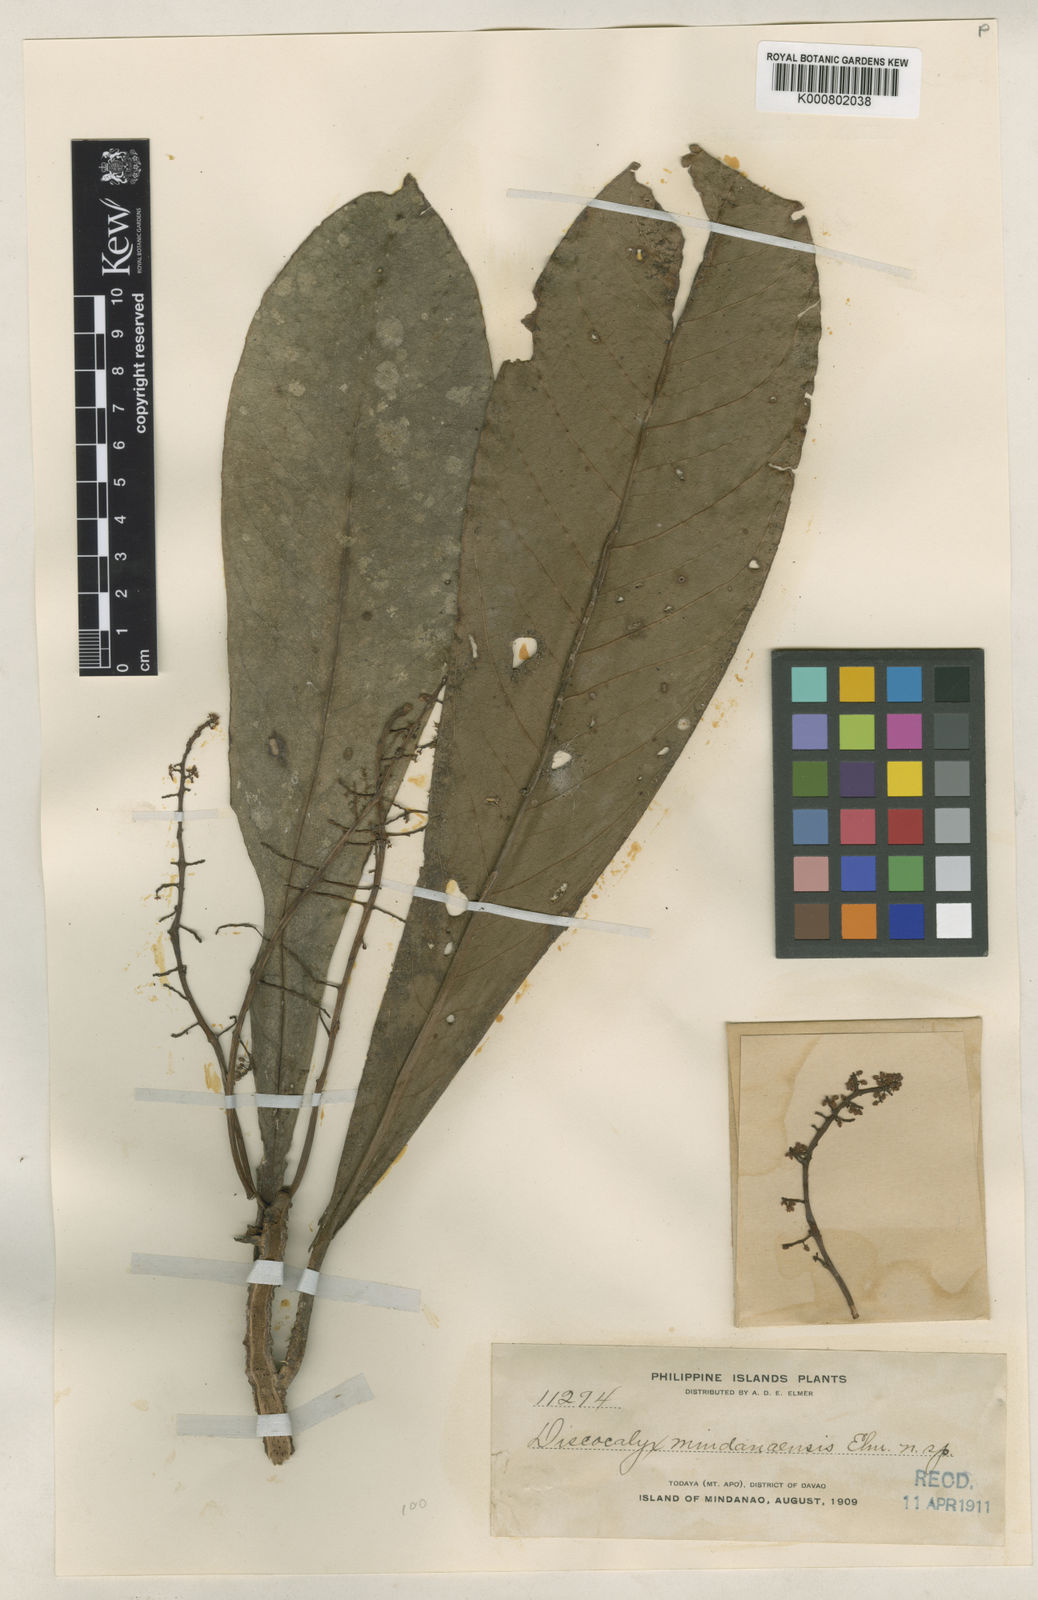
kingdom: Plantae
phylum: Tracheophyta
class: Magnoliopsida
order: Ericales
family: Primulaceae
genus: Discocalyx
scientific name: Discocalyx mindanaensis
